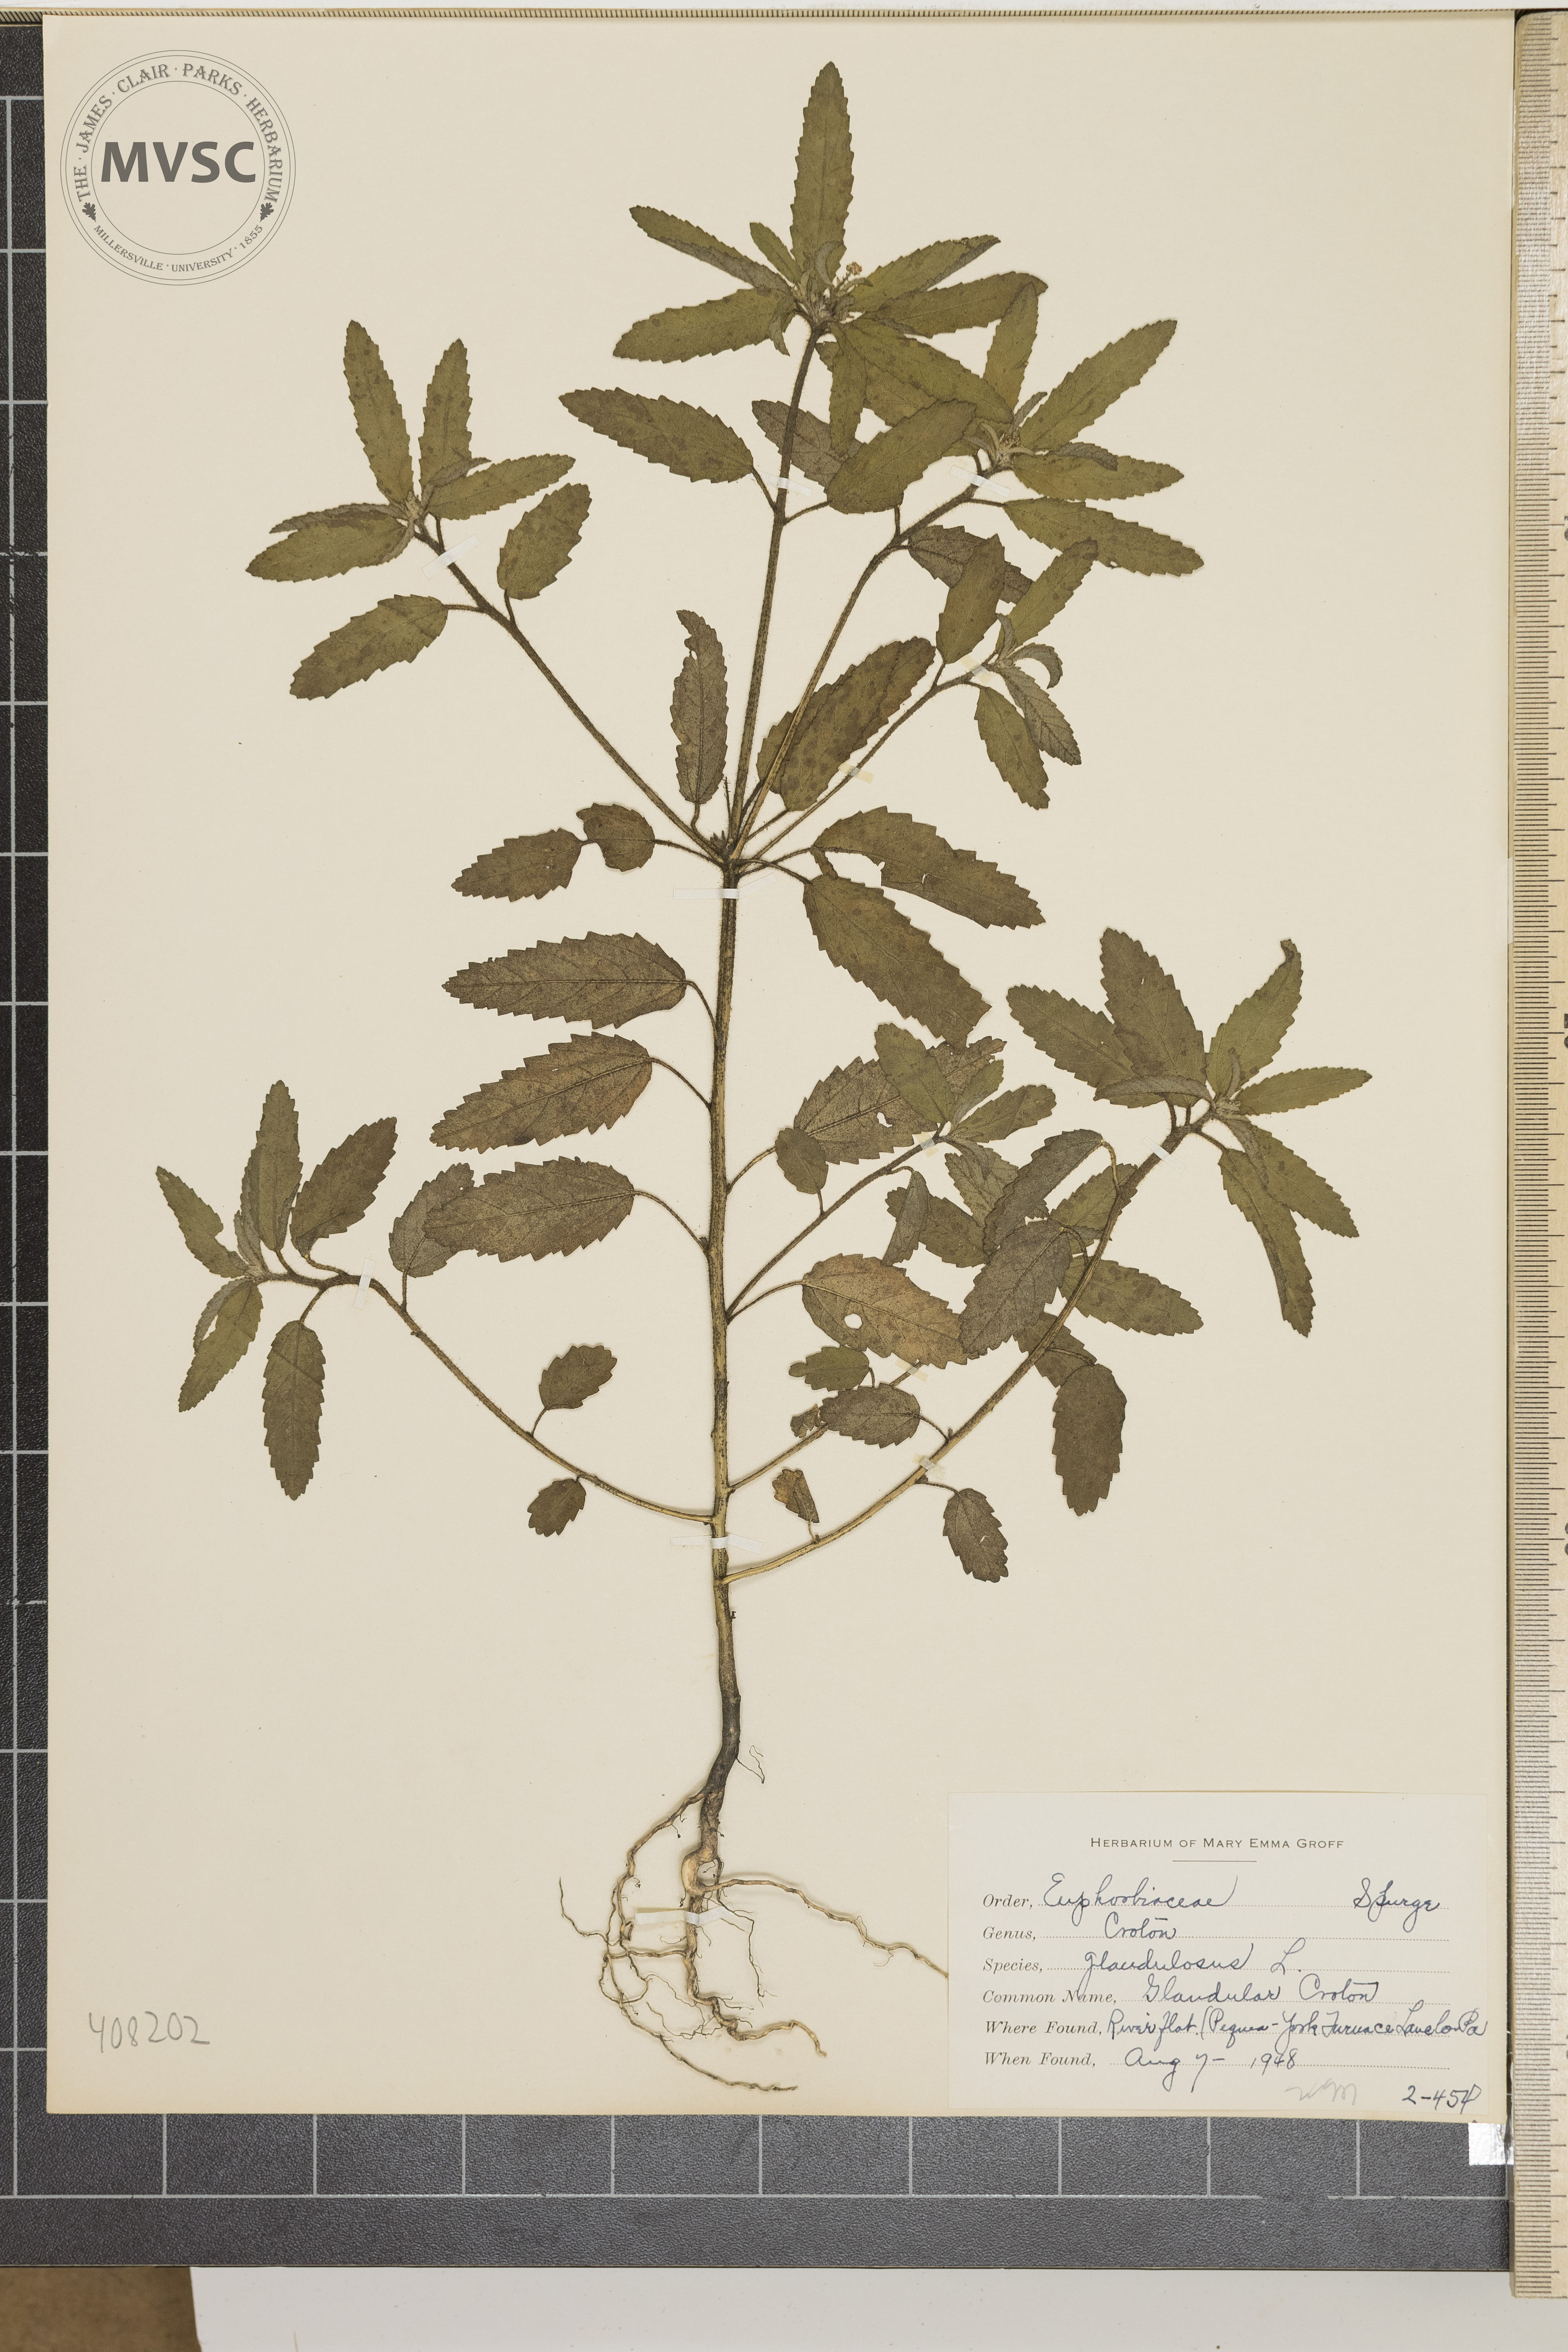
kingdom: Plantae
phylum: Tracheophyta
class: Magnoliopsida
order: Malpighiales
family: Euphorbiaceae
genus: Croton
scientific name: Croton glandulosus
